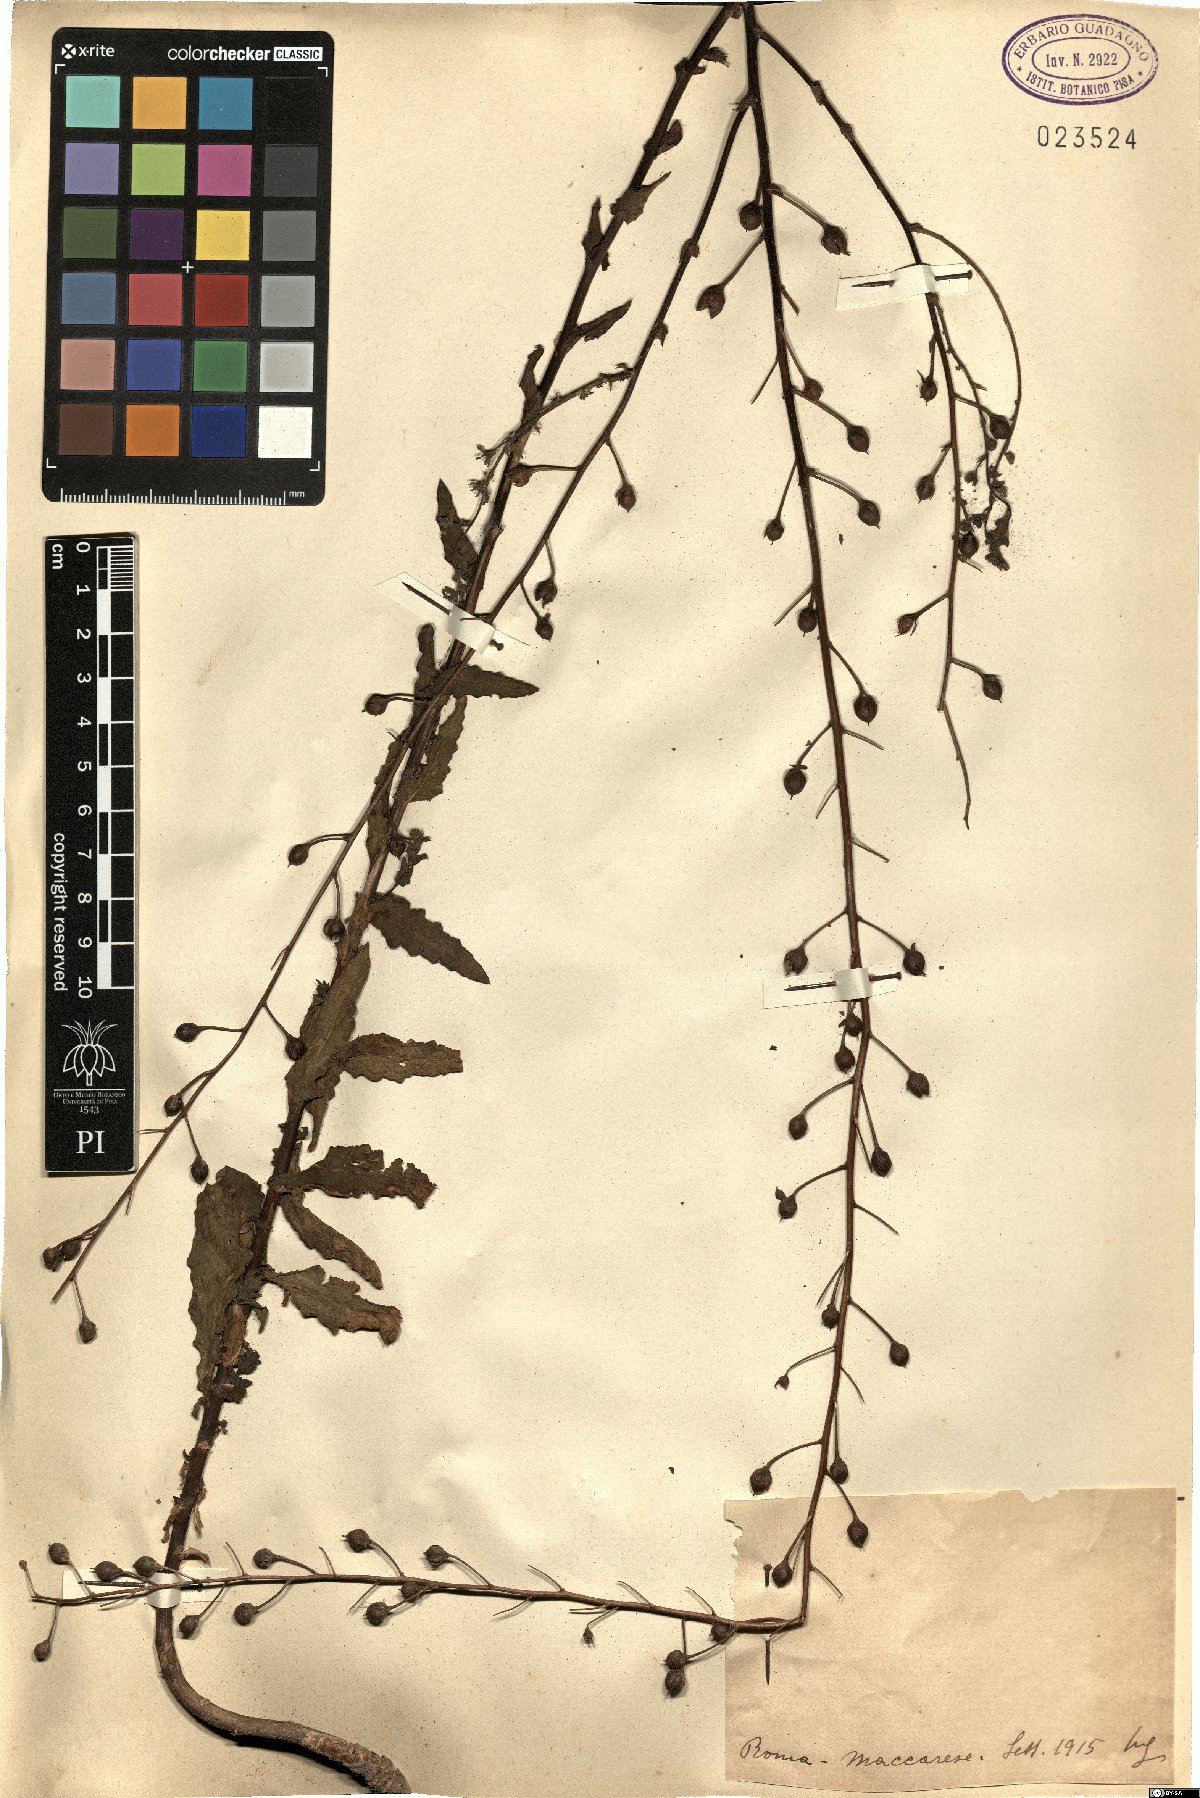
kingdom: Plantae
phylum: Tracheophyta
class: Magnoliopsida
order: Lamiales
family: Scrophulariaceae
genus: Verbascum
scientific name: Verbascum
